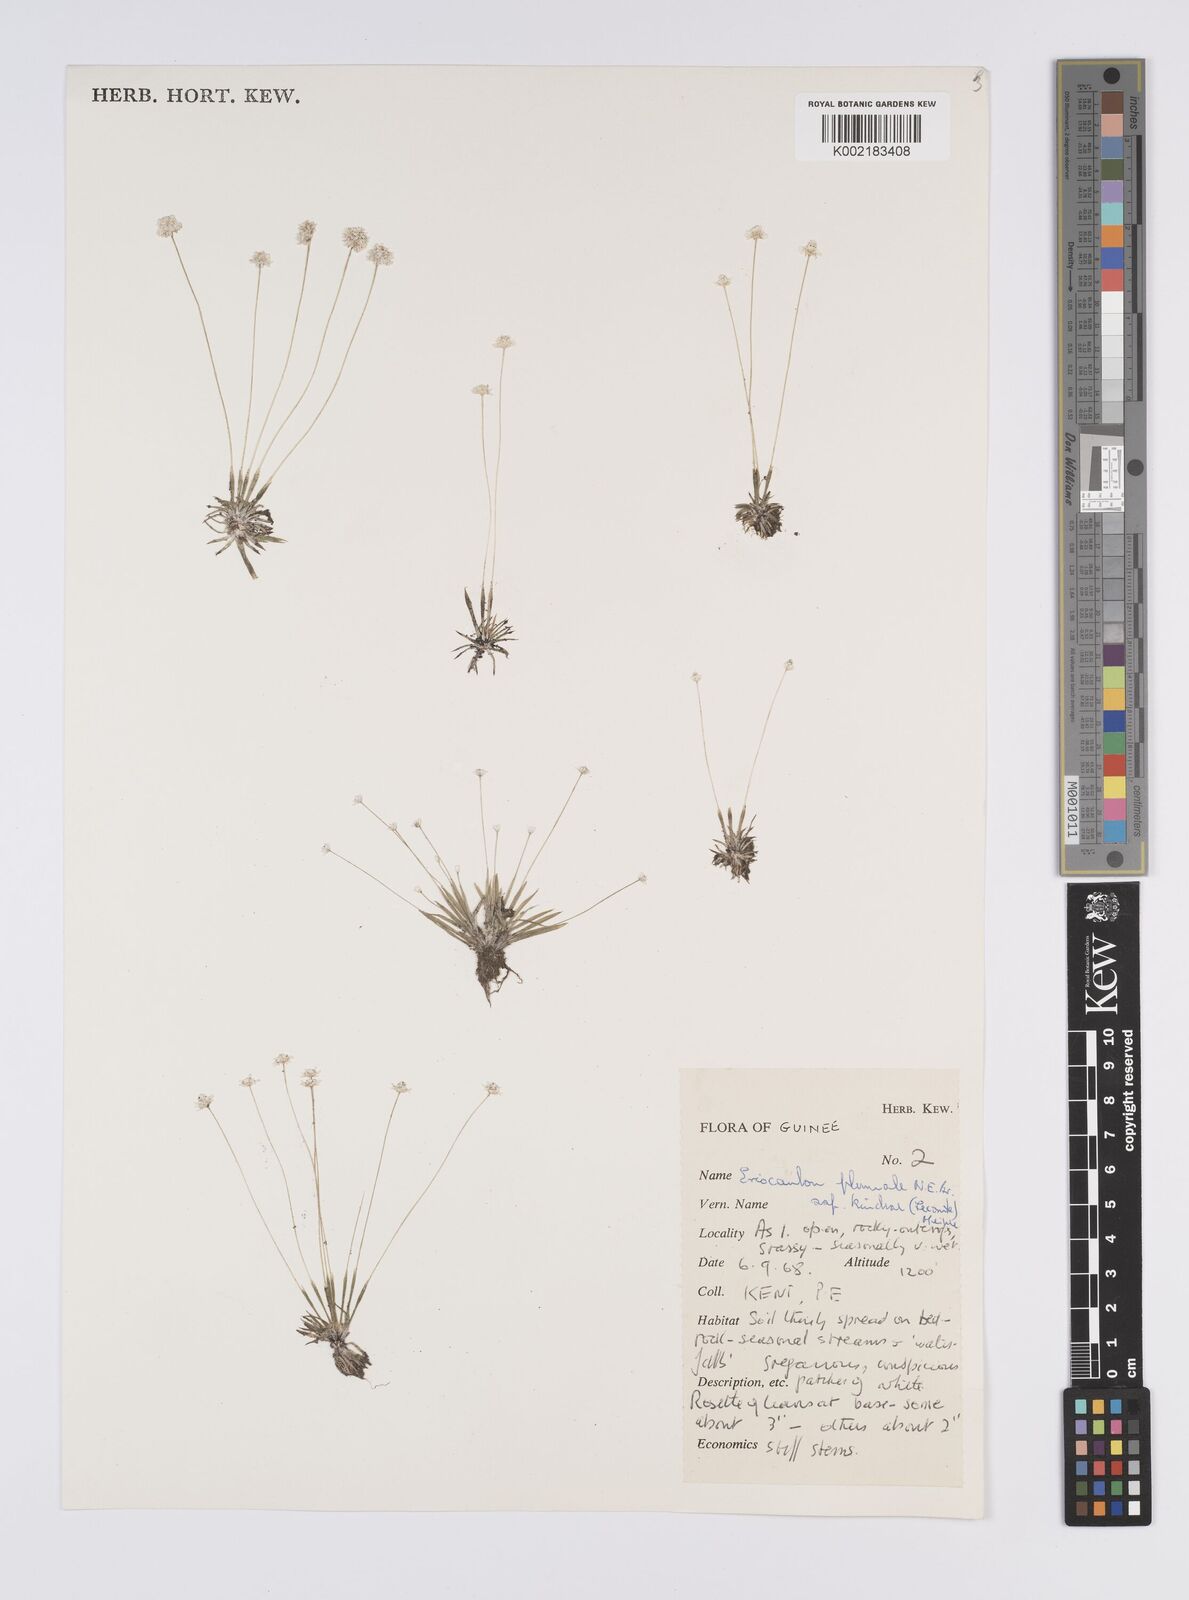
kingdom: Plantae
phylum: Tracheophyta
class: Liliopsida
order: Poales
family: Eriocaulaceae
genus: Eriocaulon
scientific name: Eriocaulon plumale
